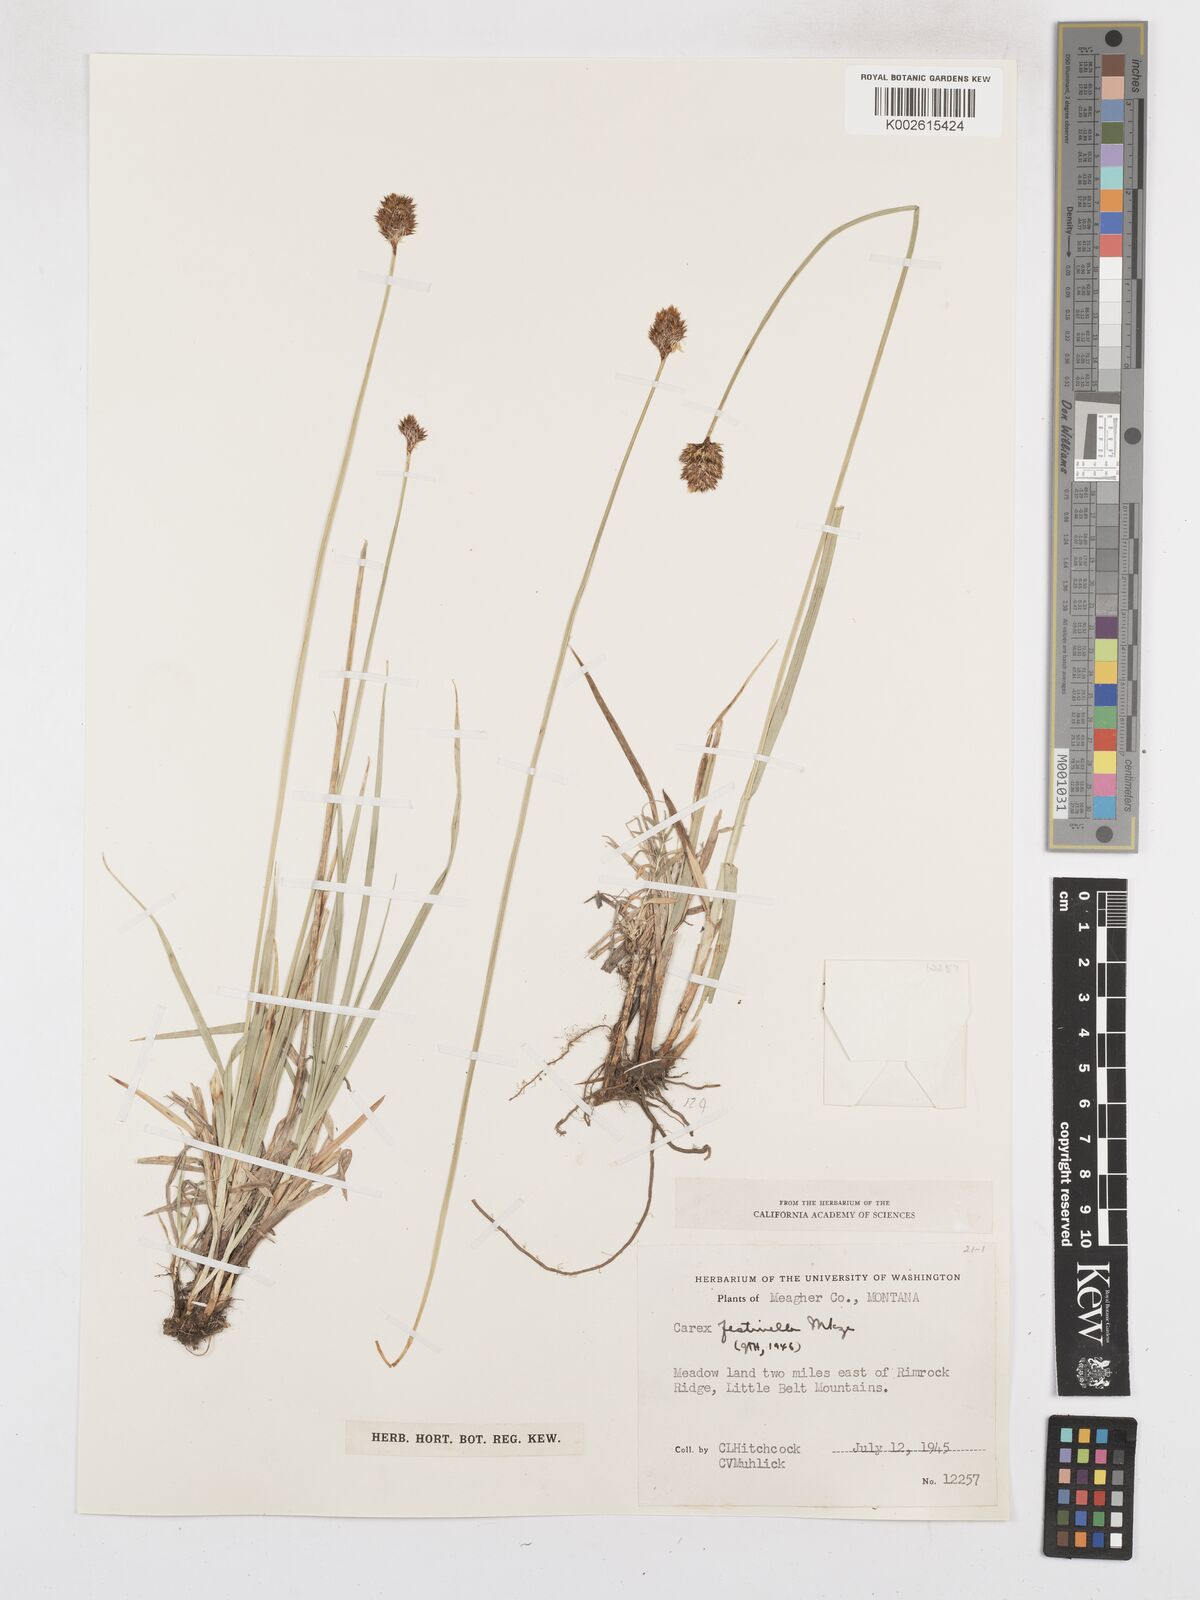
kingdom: Plantae
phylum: Tracheophyta
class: Liliopsida
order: Poales
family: Cyperaceae
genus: Carex
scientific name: Carex microptera
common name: Oval-headed sedge
